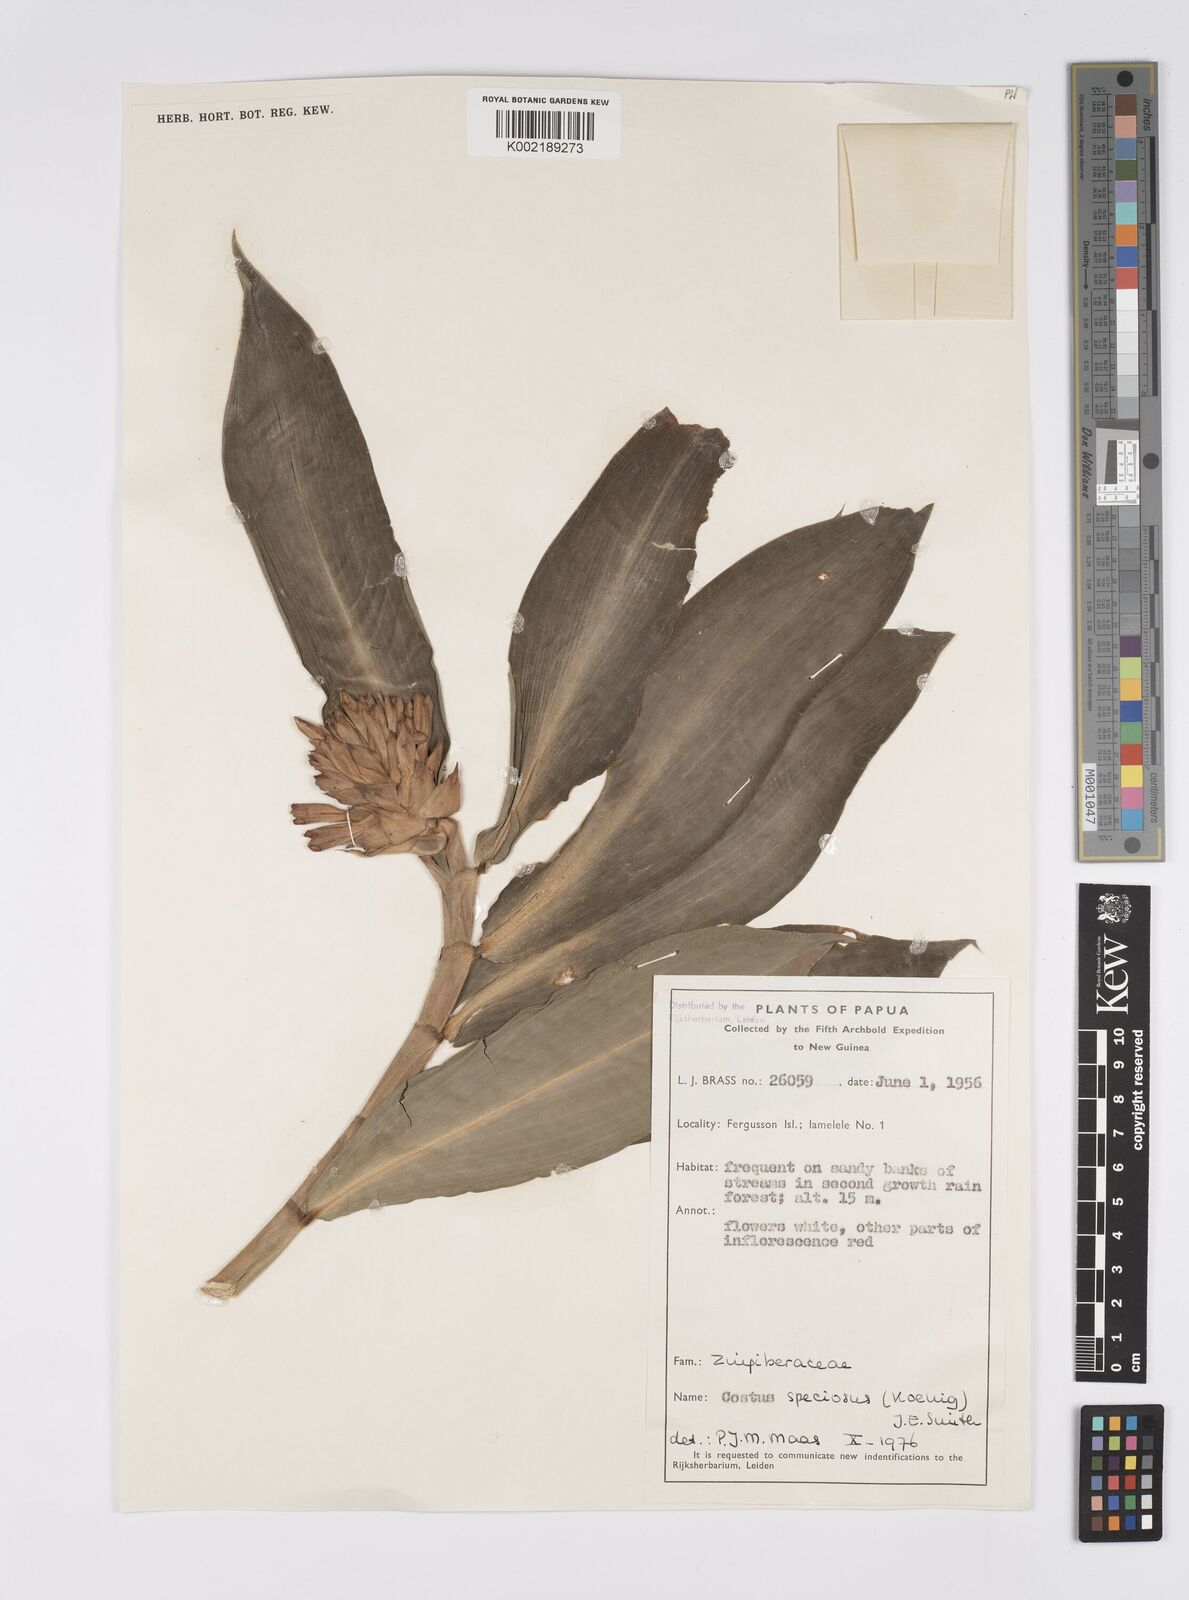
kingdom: Plantae
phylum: Tracheophyta
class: Liliopsida
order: Zingiberales
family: Costaceae
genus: Hellenia
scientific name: Hellenia speciosa
